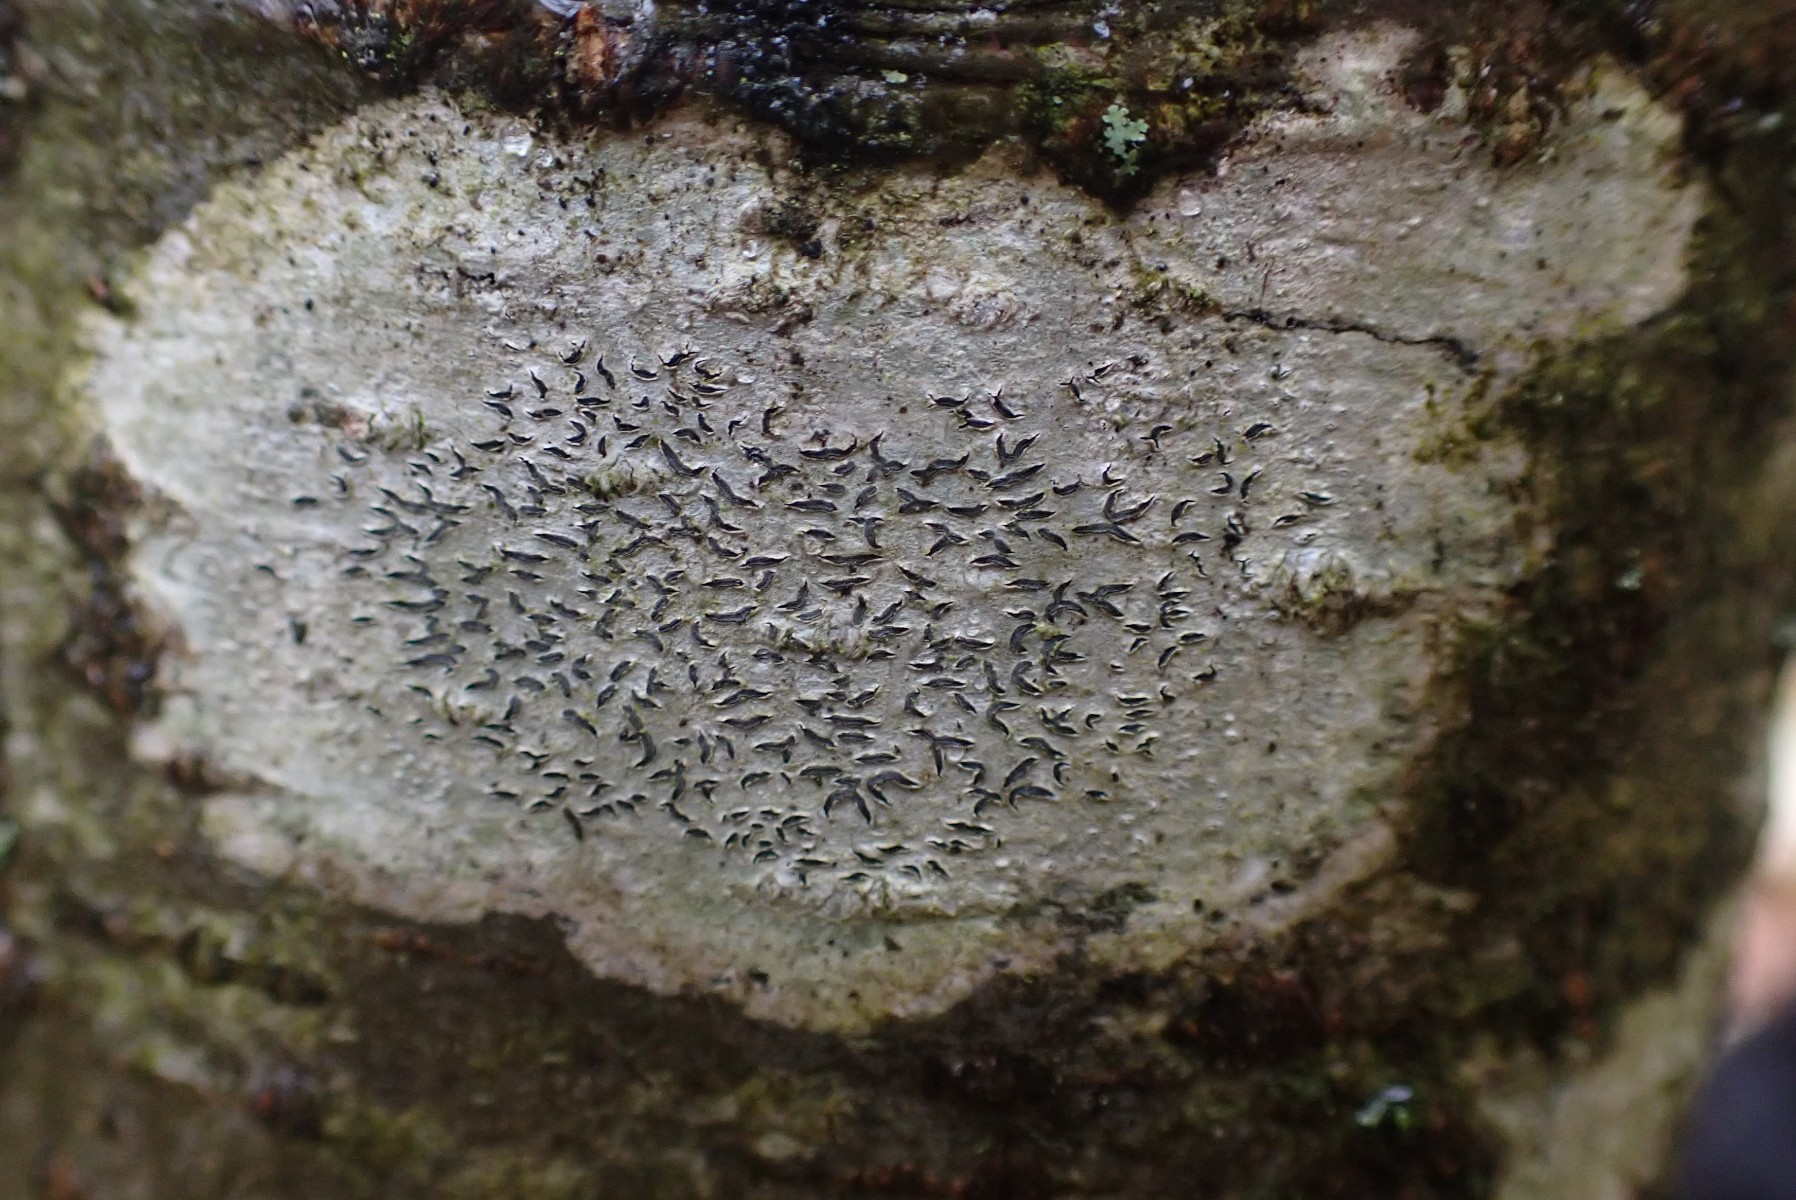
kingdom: Fungi
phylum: Ascomycota
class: Lecanoromycetes
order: Ostropales
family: Graphidaceae
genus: Graphis
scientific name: Graphis scripta
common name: almindelig skriftlav
